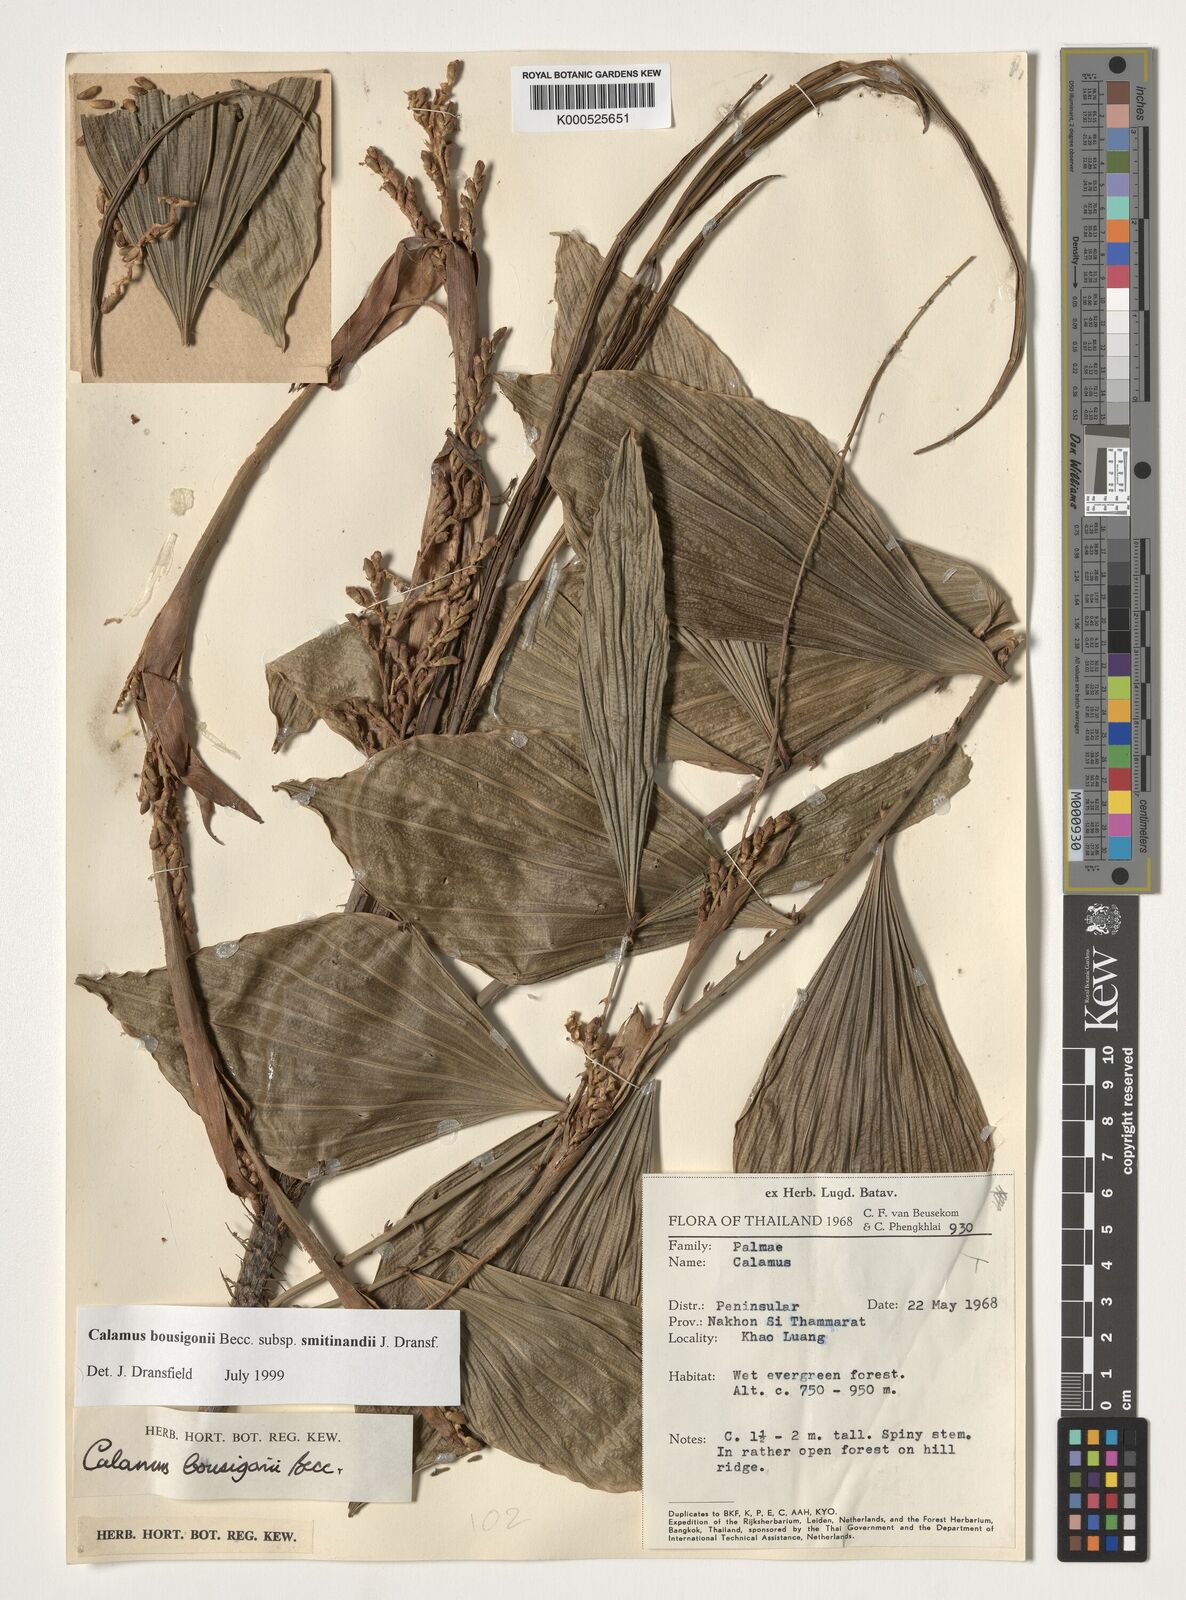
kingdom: Plantae
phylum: Tracheophyta
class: Liliopsida
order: Arecales
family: Arecaceae
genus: Calamus
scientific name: Calamus smitinandii
